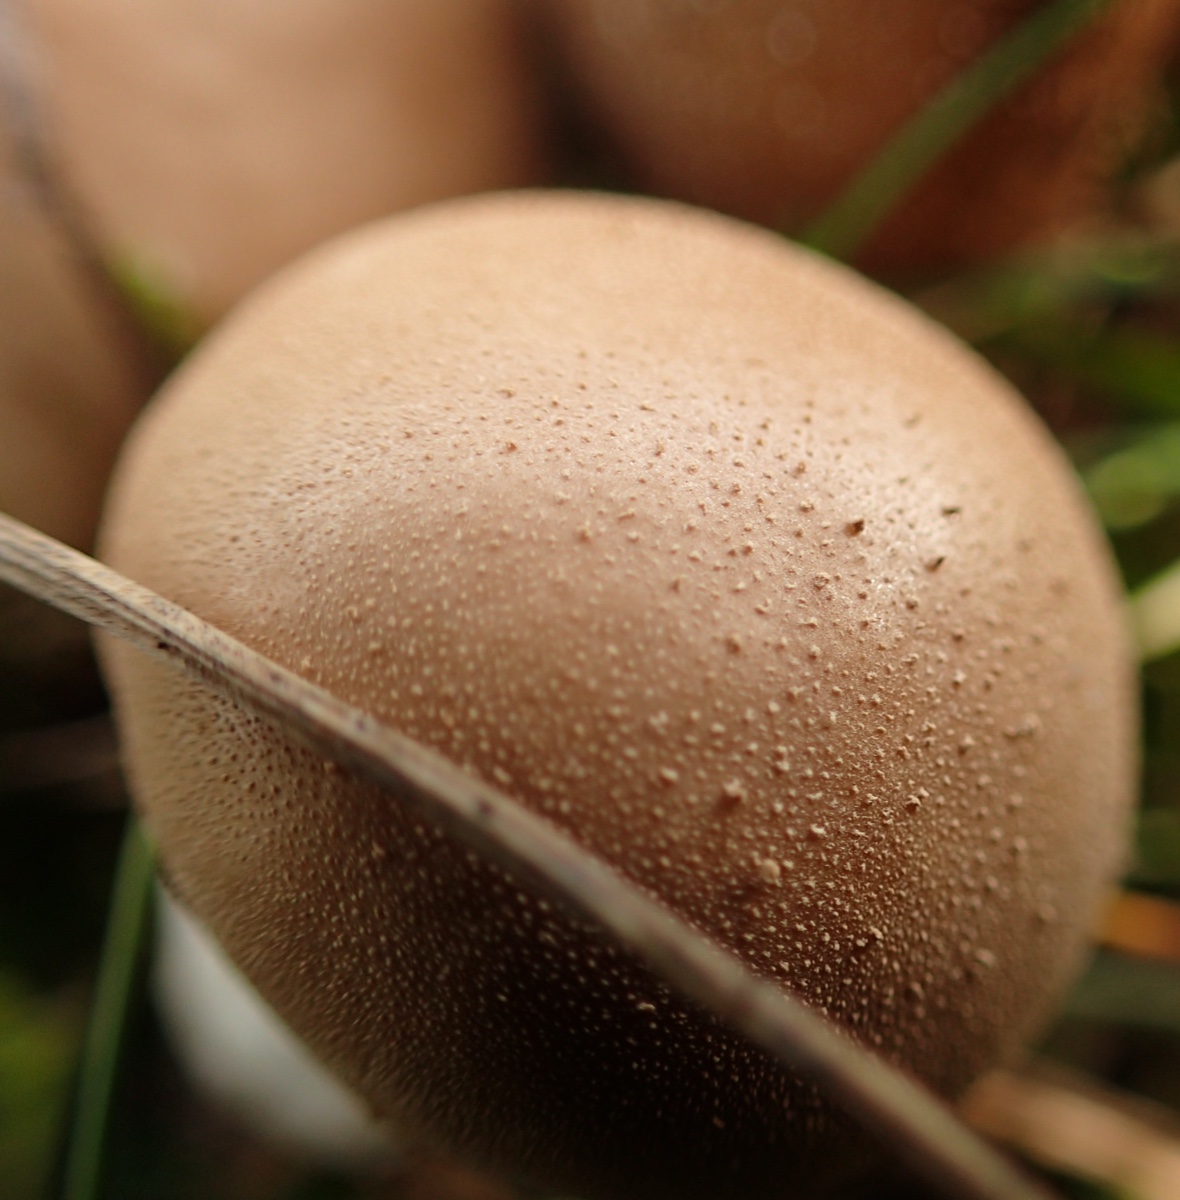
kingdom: Fungi
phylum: Basidiomycota
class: Agaricomycetes
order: Agaricales
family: Lycoperdaceae
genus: Lycoperdon
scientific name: Lycoperdon lividum
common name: mark-støvbold
